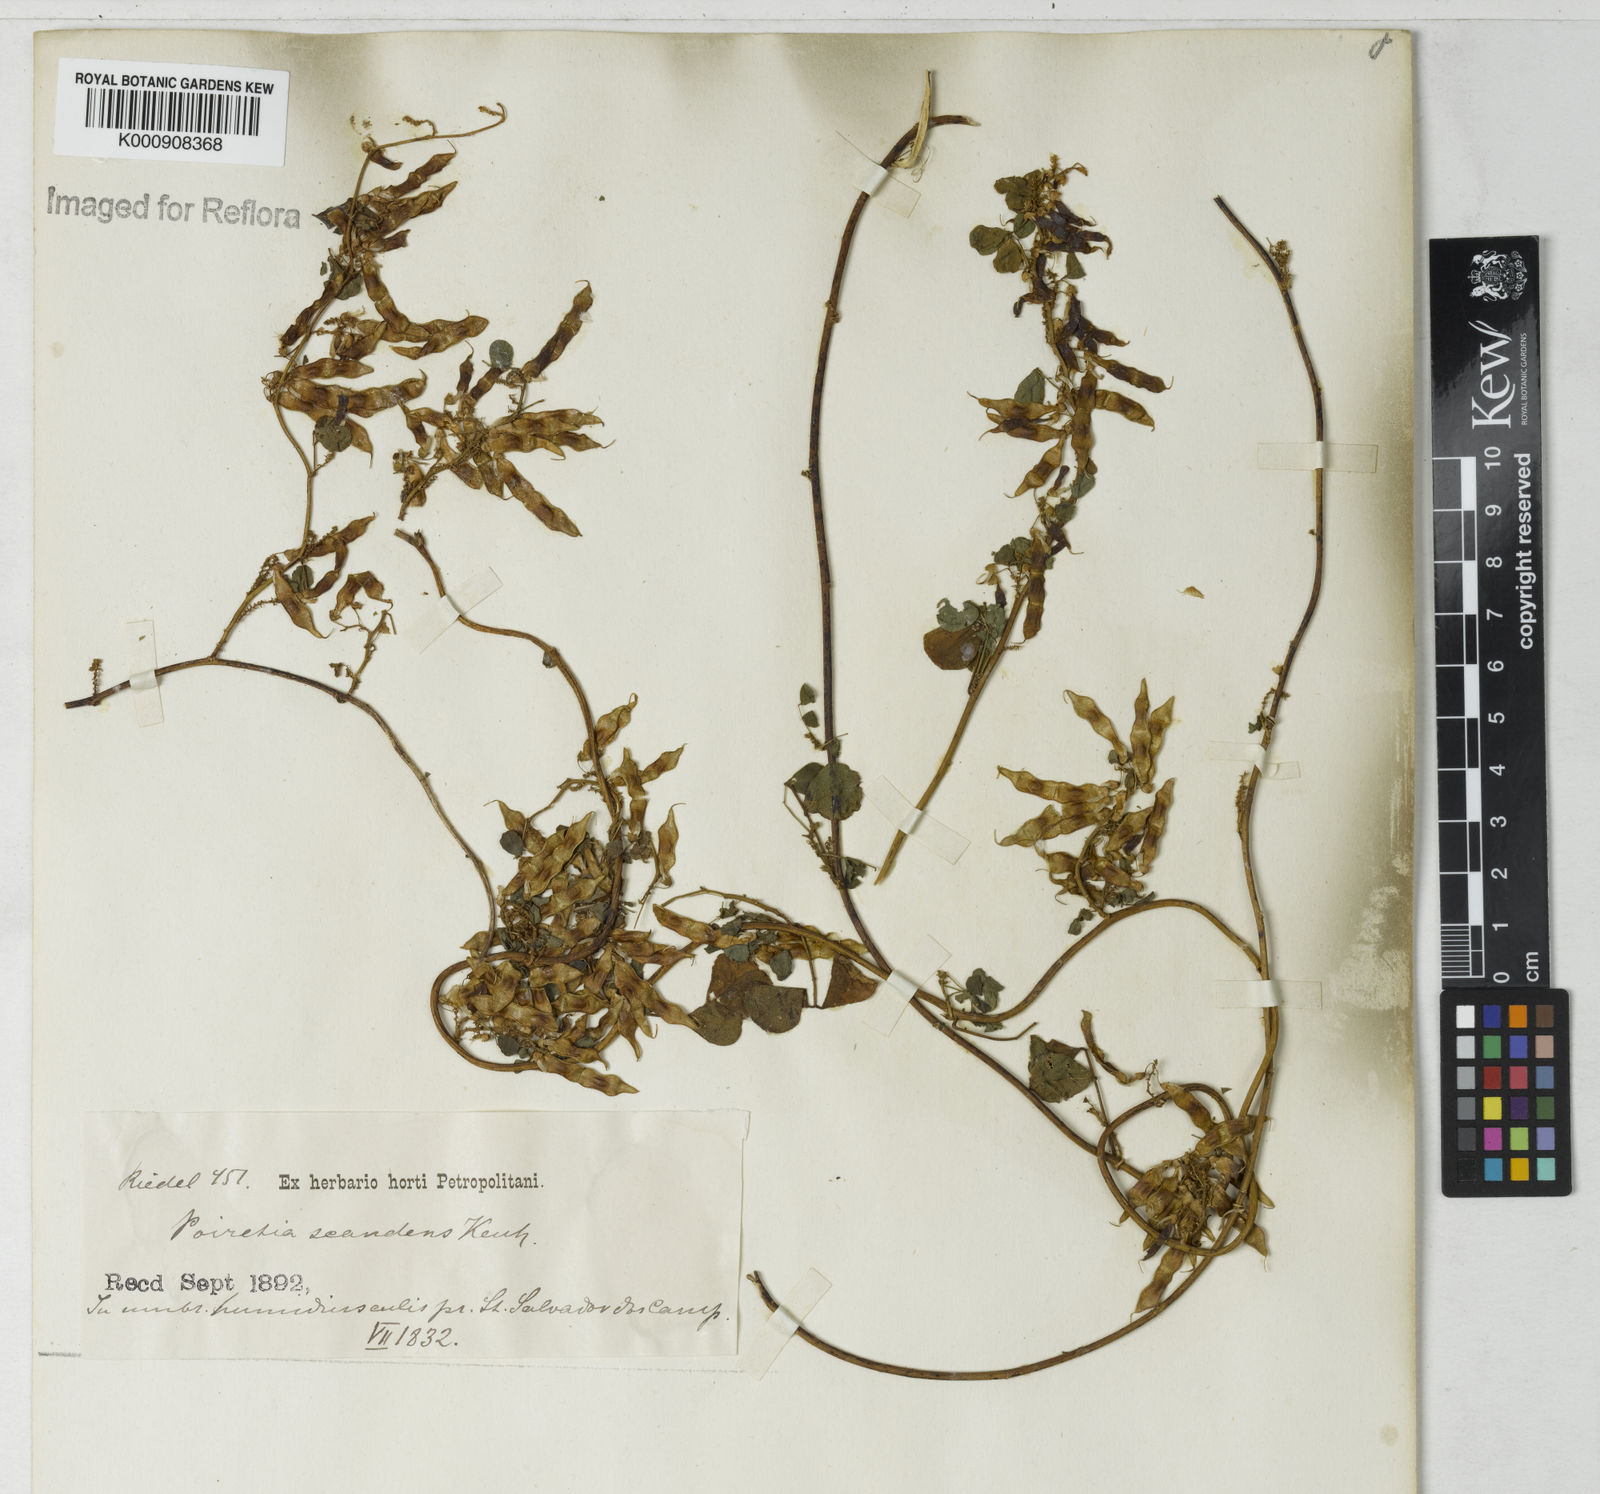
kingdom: Plantae
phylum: Tracheophyta
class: Magnoliopsida
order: Fabales
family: Fabaceae
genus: Poiretia
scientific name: Poiretia punctata
